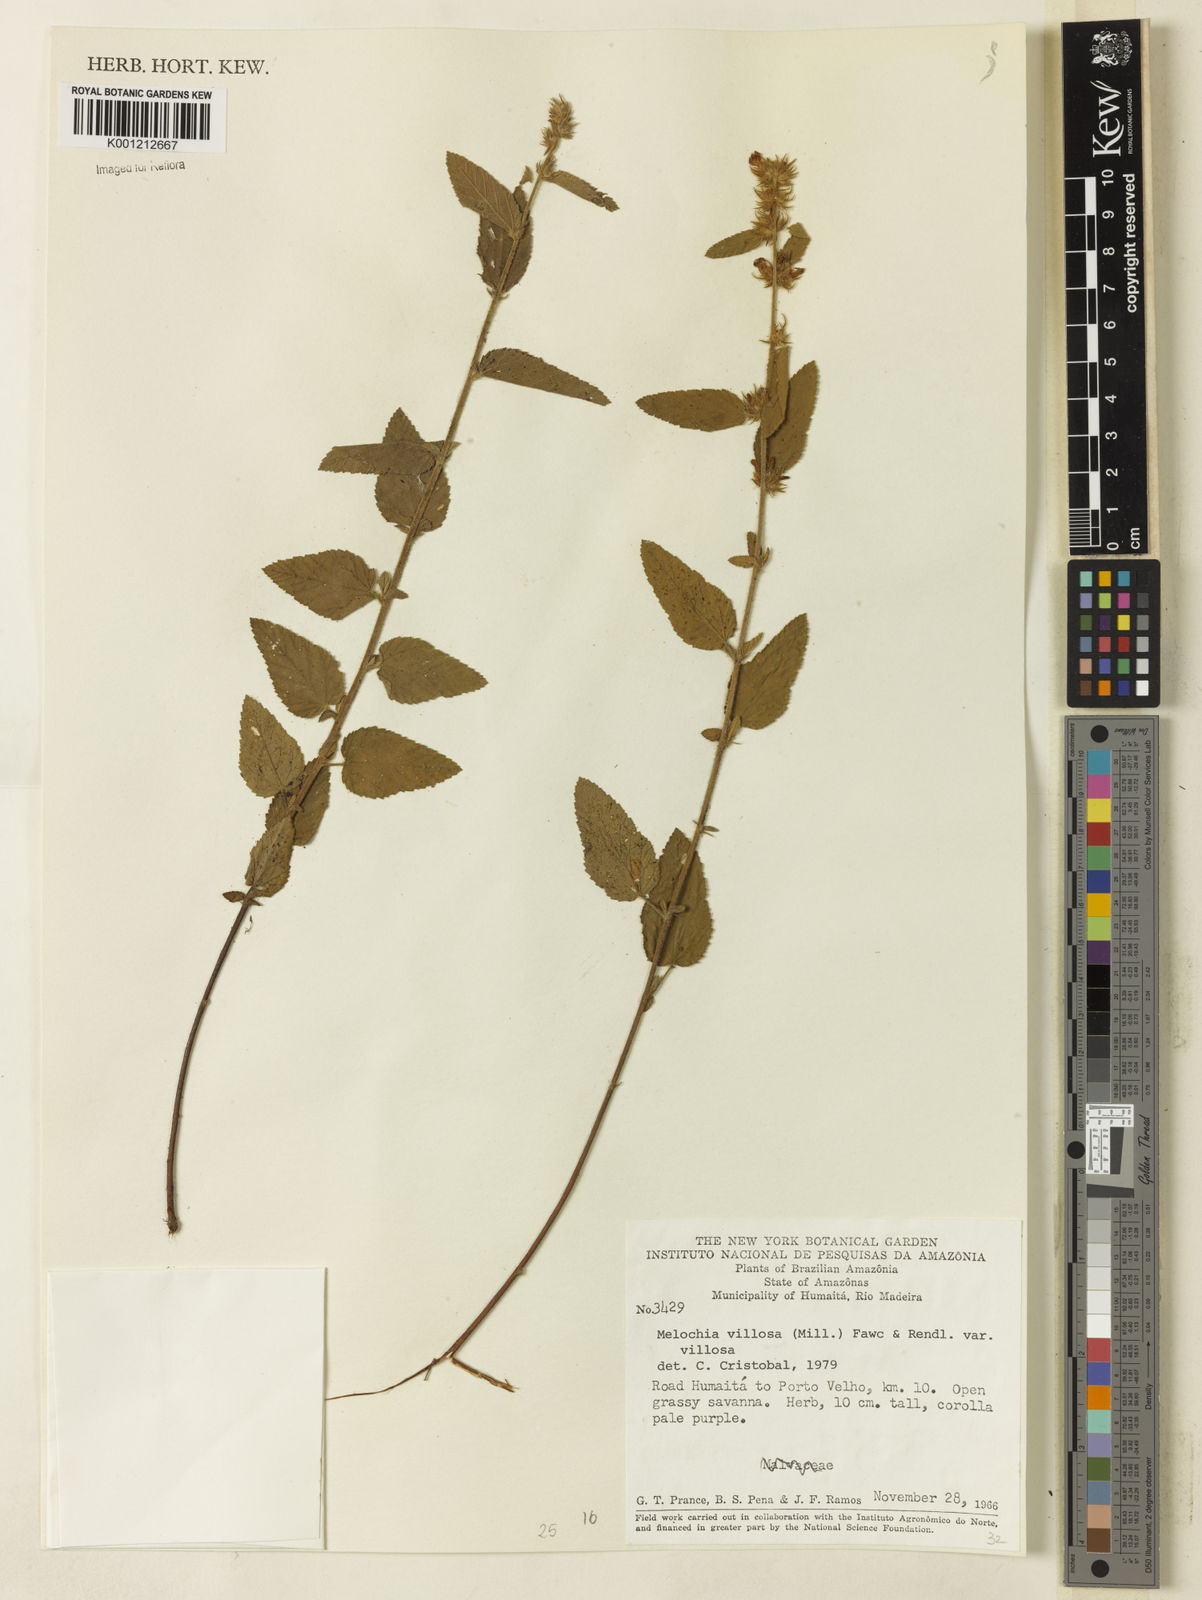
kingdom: Plantae
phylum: Tracheophyta
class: Magnoliopsida
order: Malvales
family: Malvaceae
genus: Melochia
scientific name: Melochia spicata
